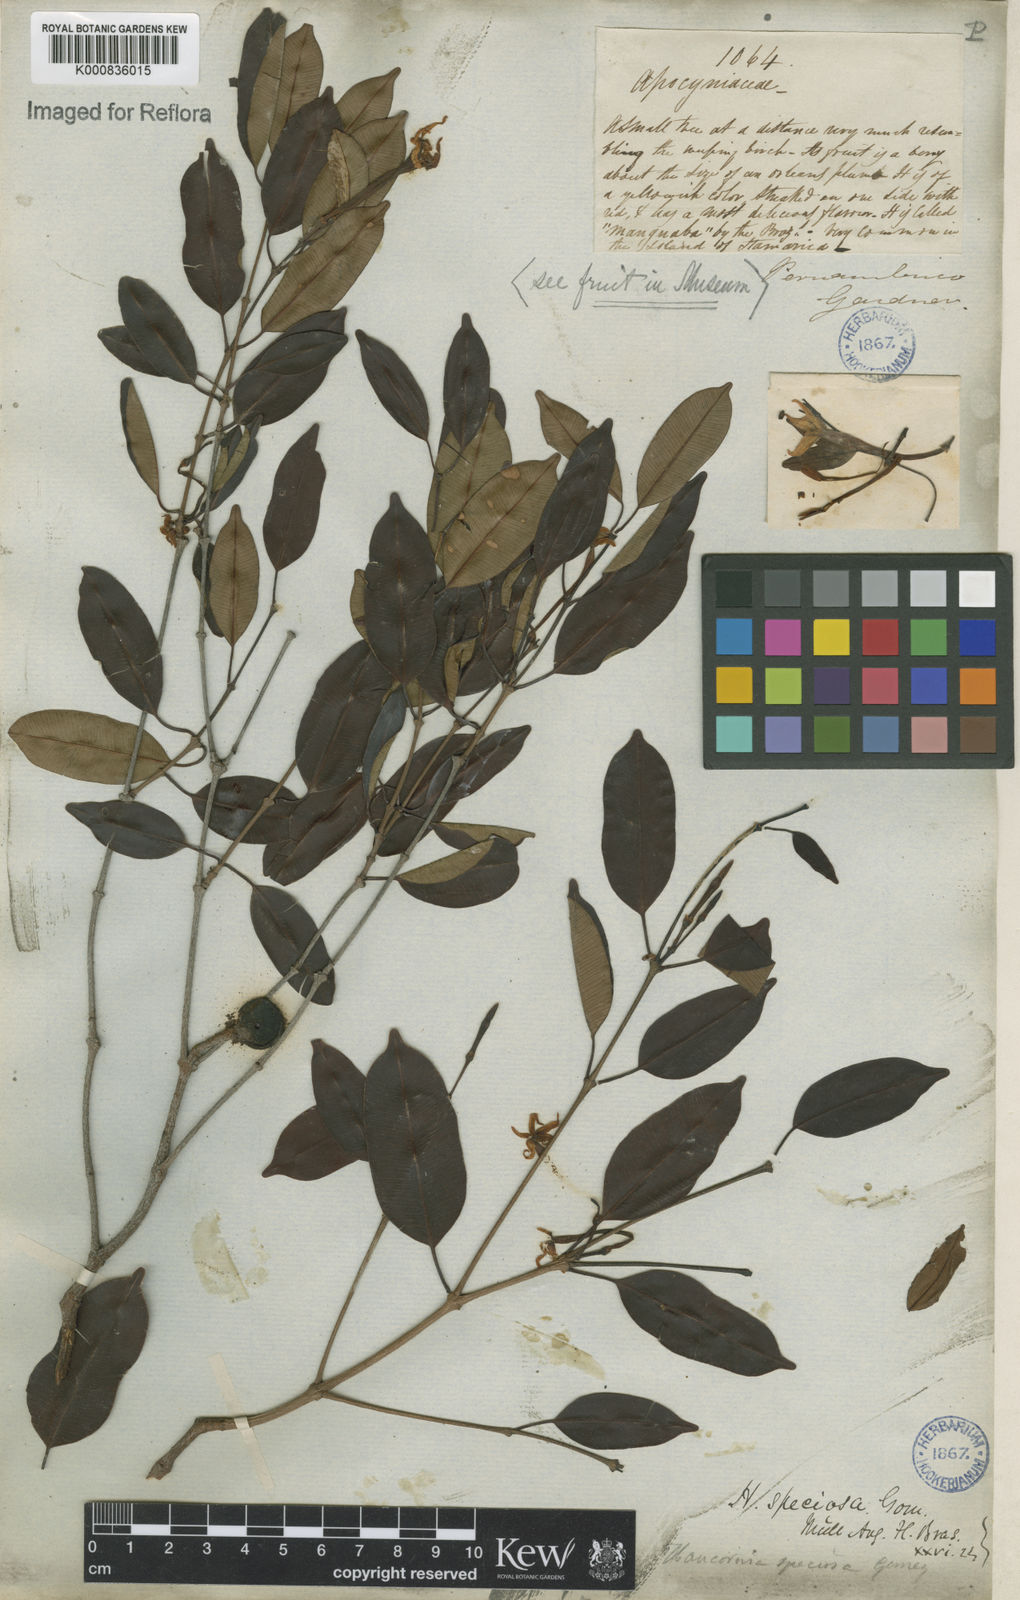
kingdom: Plantae
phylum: Tracheophyta
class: Magnoliopsida
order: Gentianales
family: Apocynaceae
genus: Hancornia
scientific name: Hancornia speciosa
